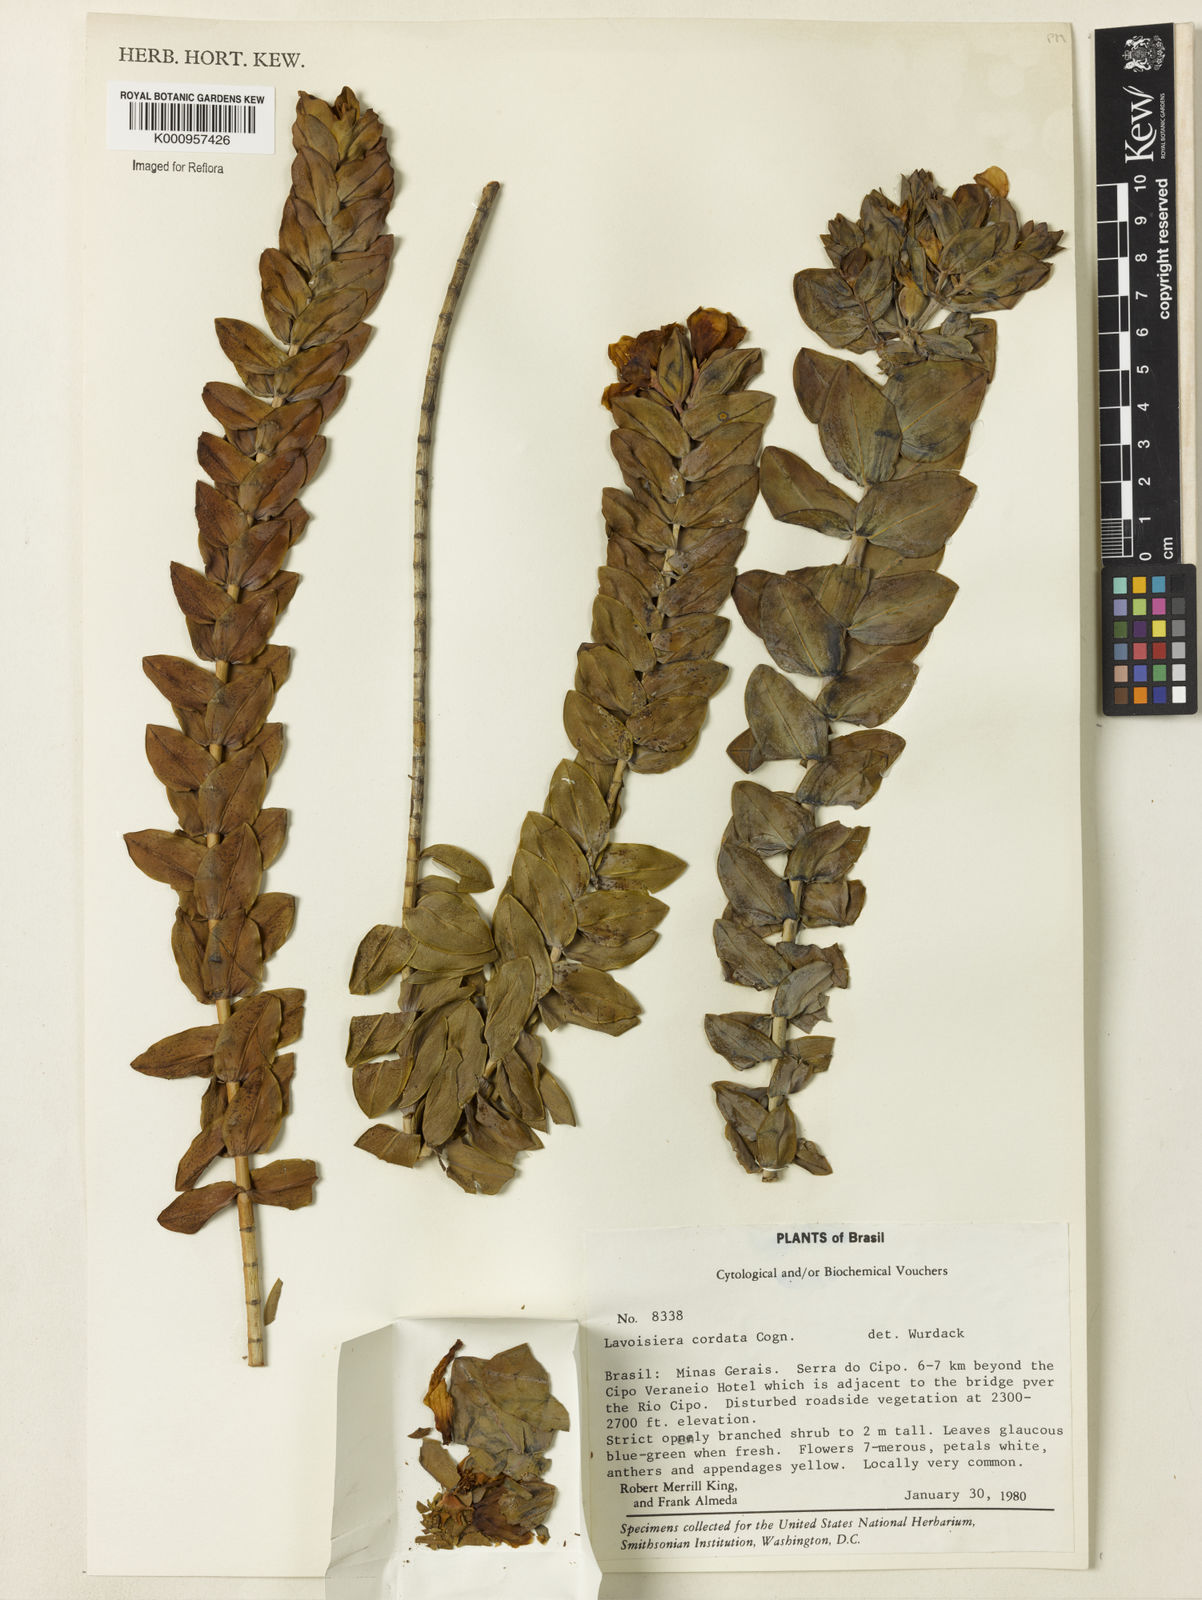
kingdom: Plantae
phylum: Tracheophyta
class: Magnoliopsida
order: Myrtales
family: Melastomataceae
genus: Microlicia
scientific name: Microlicia cordifolia
